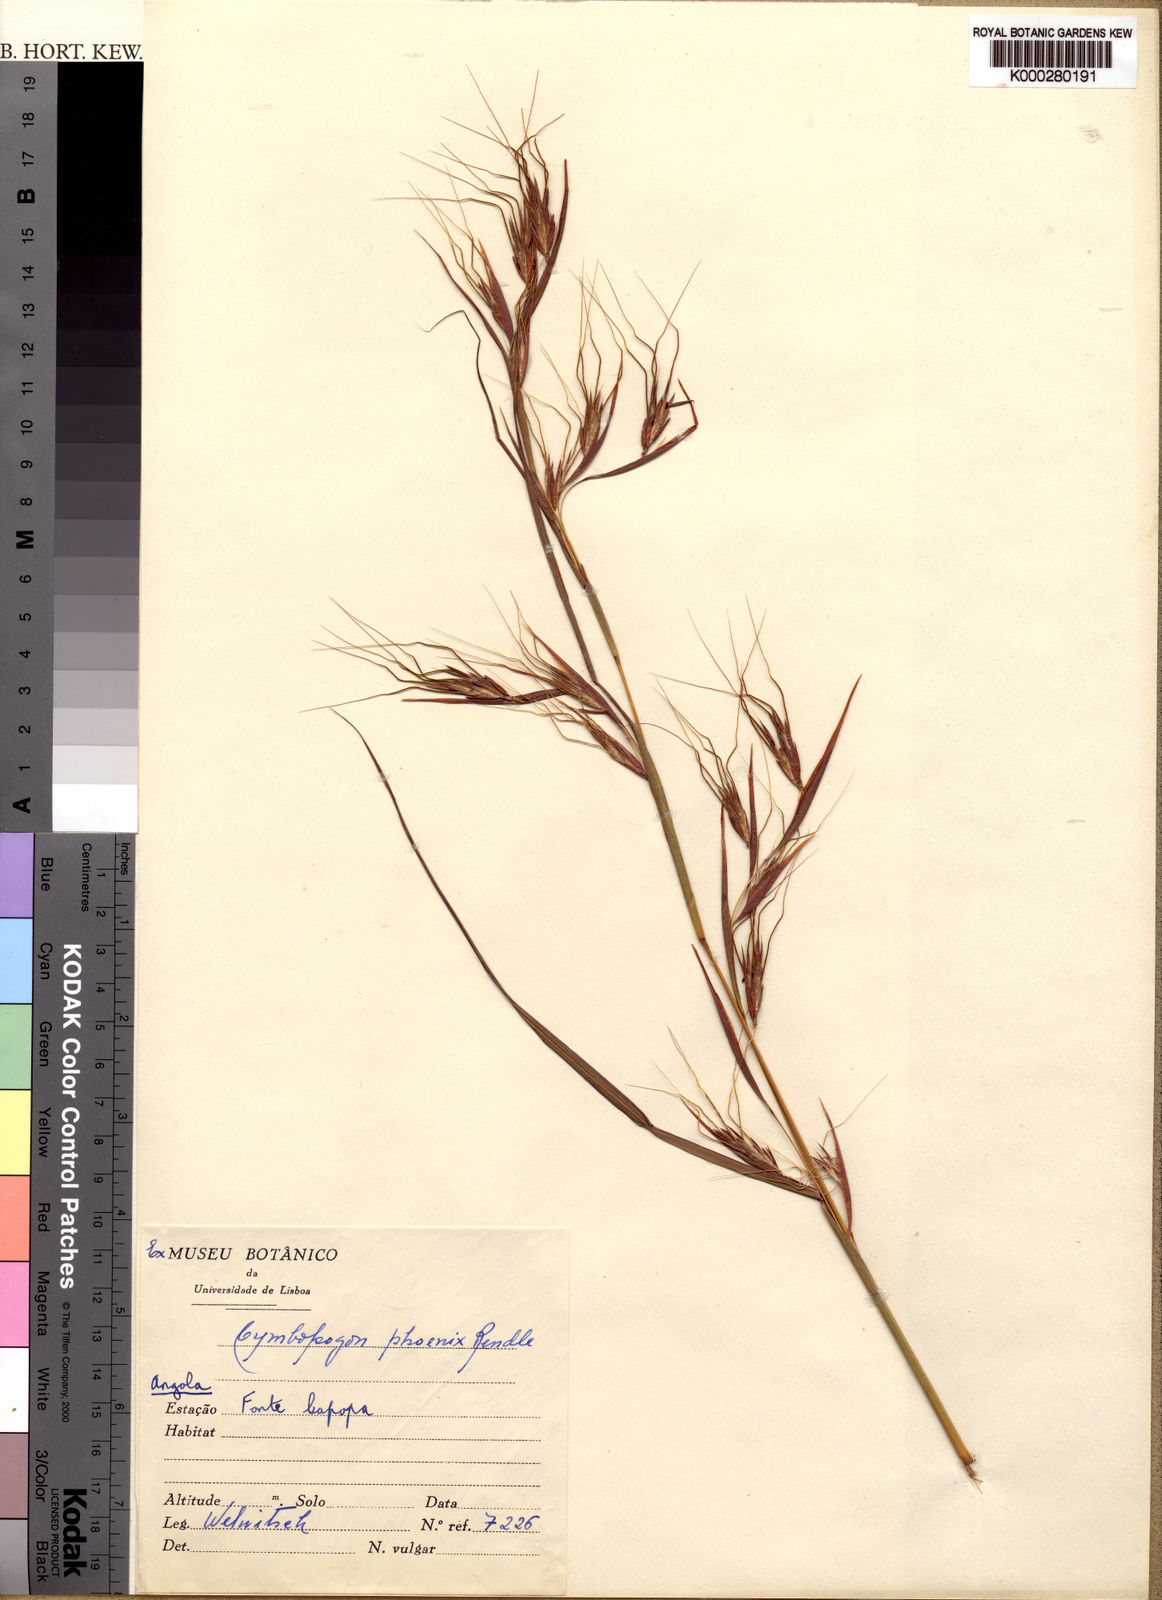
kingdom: Plantae
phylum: Tracheophyta
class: Liliopsida
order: Poales
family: Poaceae
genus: Hyparrhenia
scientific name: Hyparrhenia diplandra
